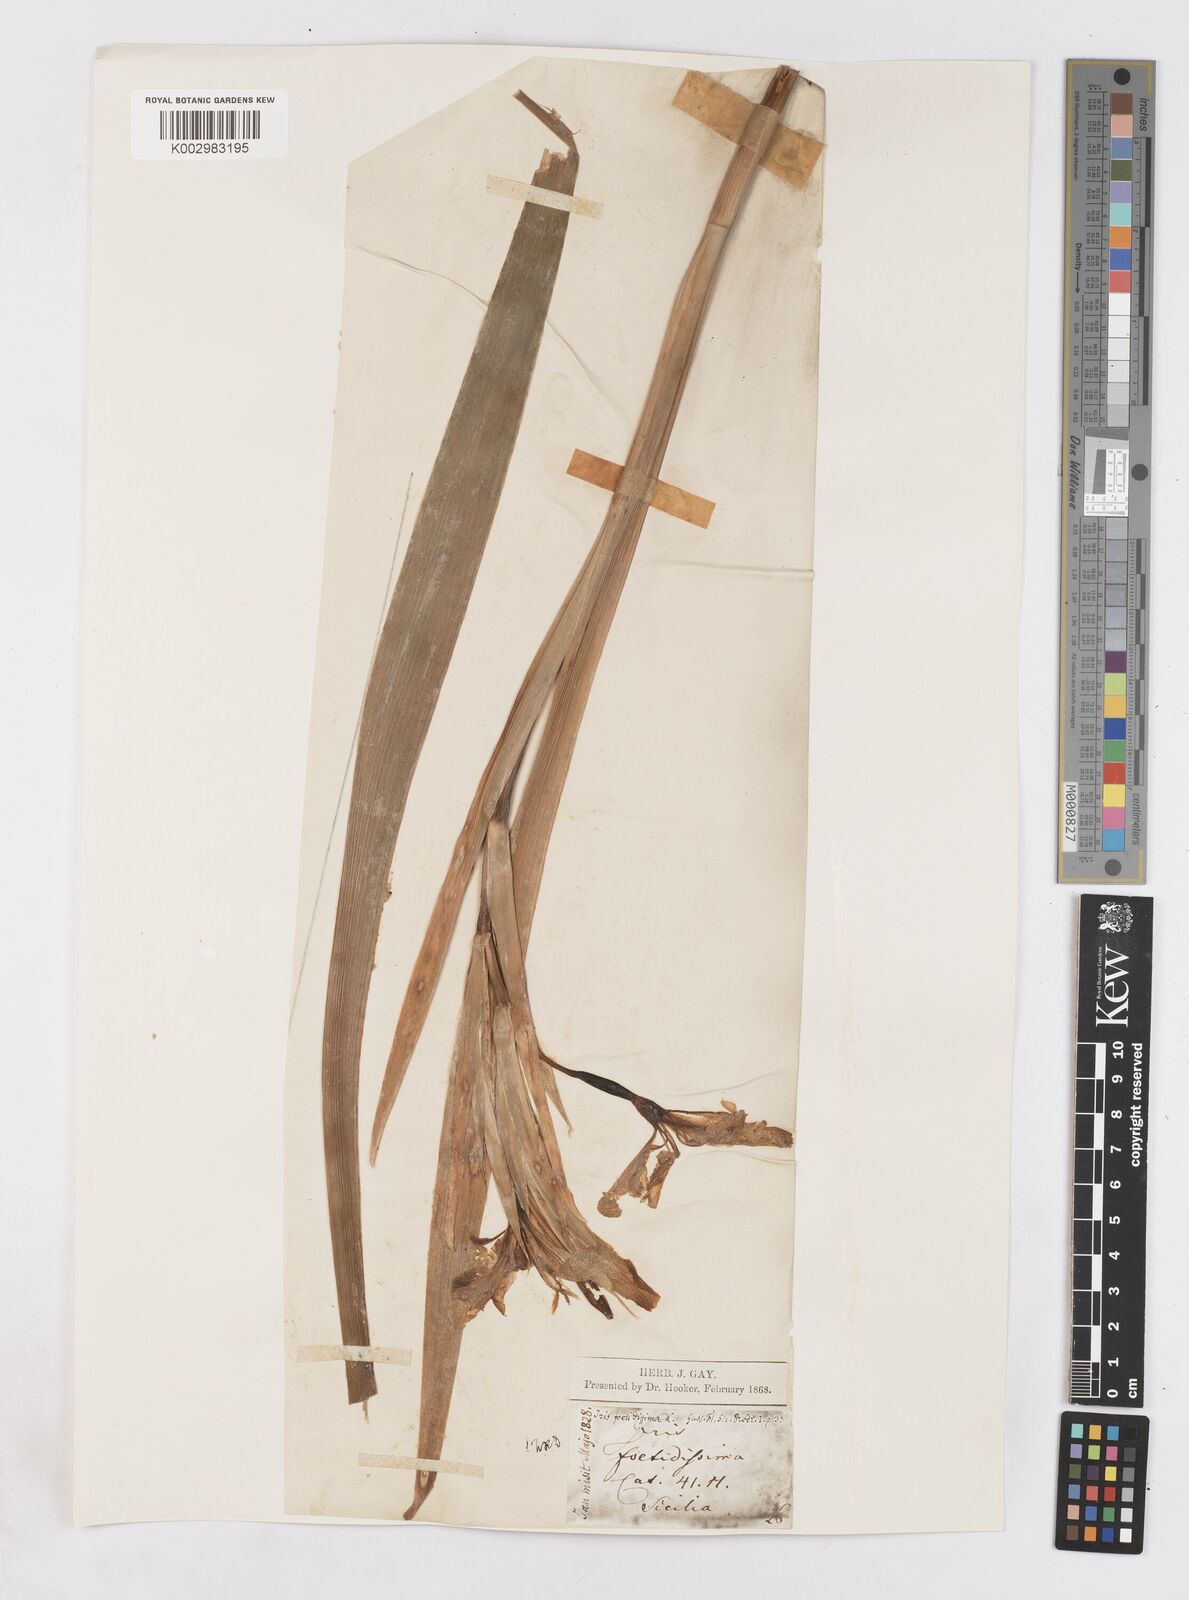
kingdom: Plantae
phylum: Tracheophyta
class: Liliopsida
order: Asparagales
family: Iridaceae
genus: Iris
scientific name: Iris foetidissima
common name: Stinking iris
